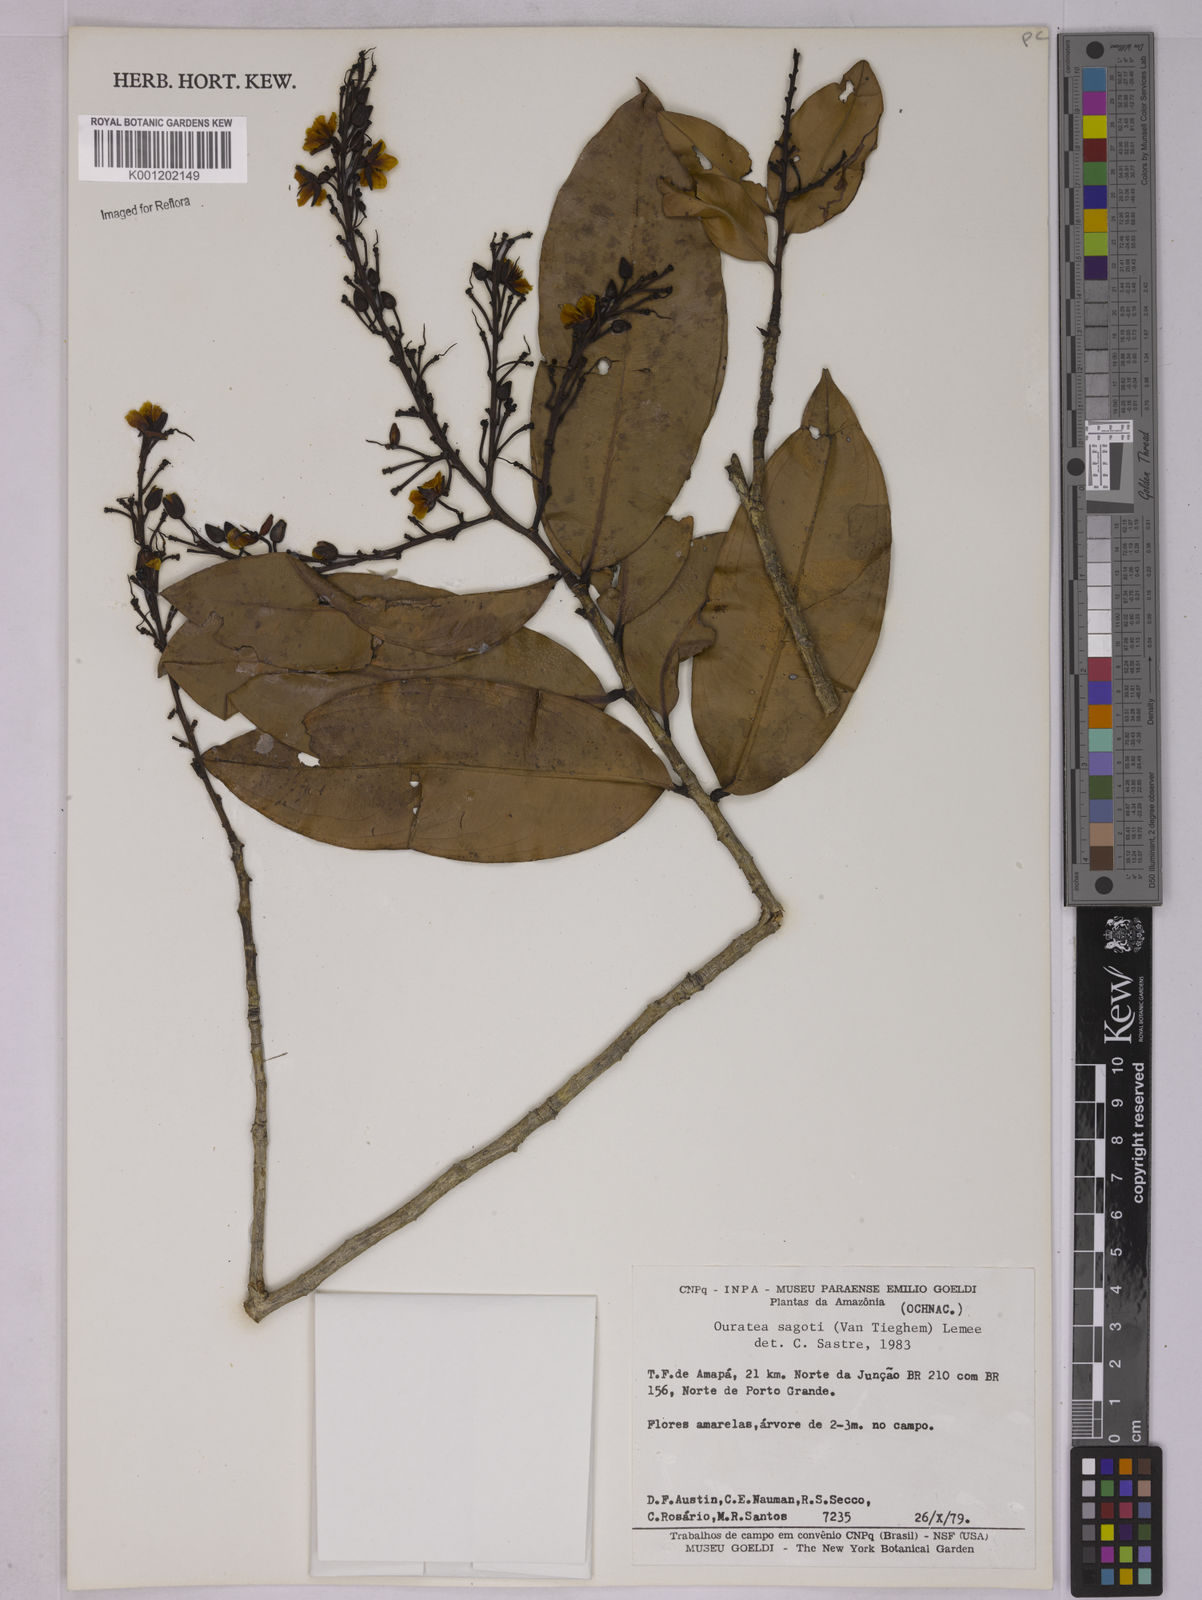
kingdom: Plantae
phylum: Tracheophyta
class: Magnoliopsida
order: Malpighiales
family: Ochnaceae
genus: Elvasia
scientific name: Elvasia elvasioides
